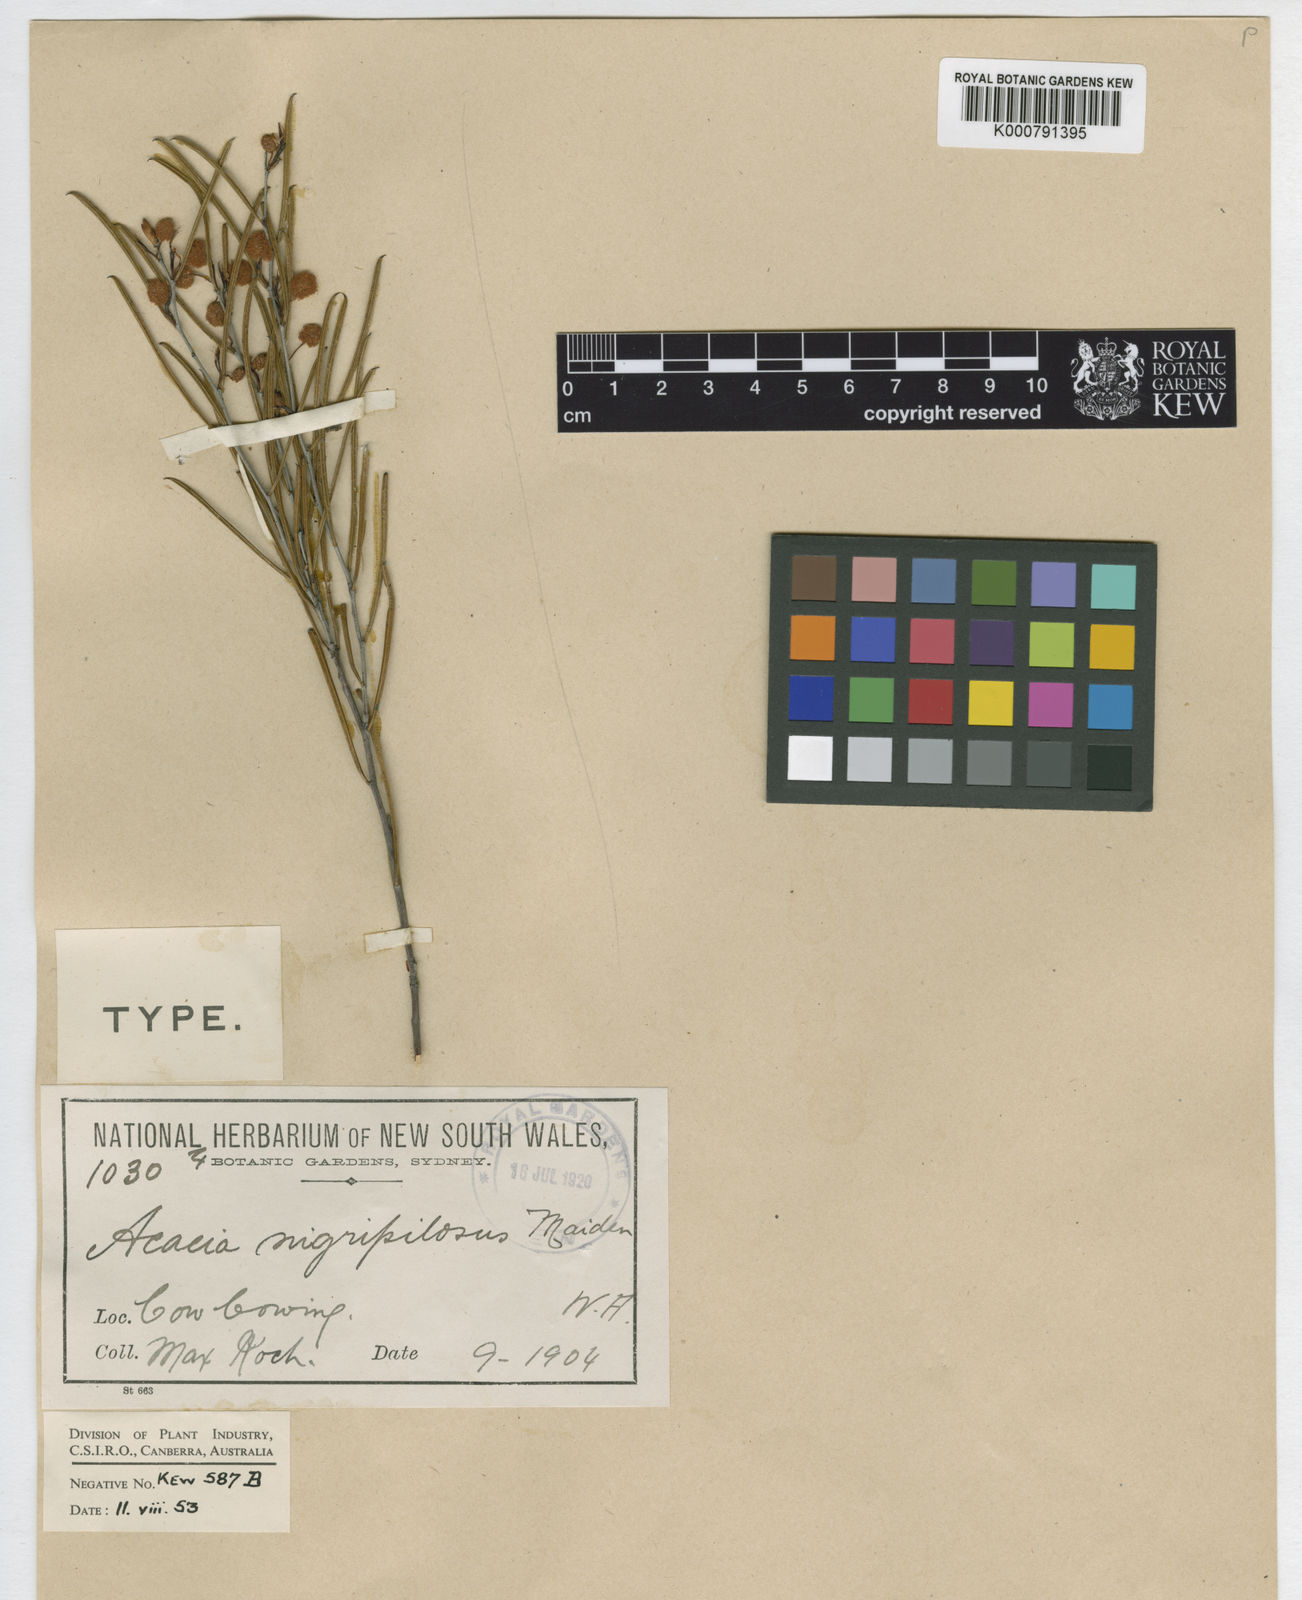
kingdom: Plantae
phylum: Tracheophyta
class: Magnoliopsida
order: Fabales
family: Fabaceae
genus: Acacia
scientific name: Acacia nigripilosa
